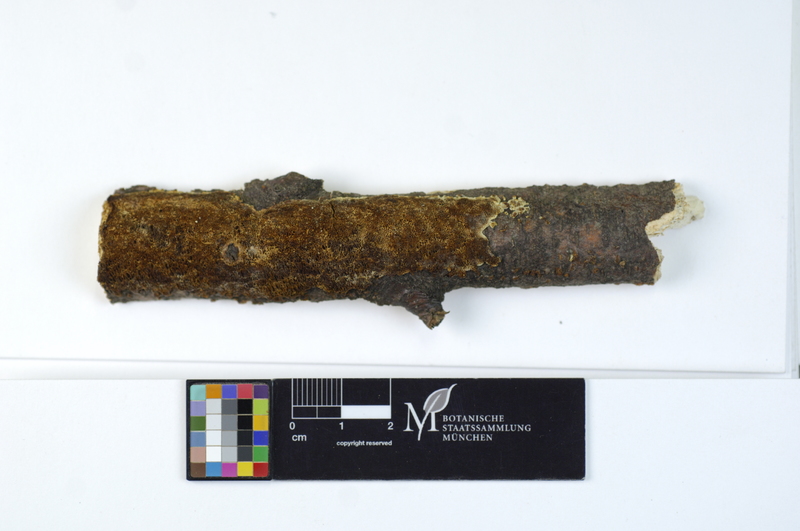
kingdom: Plantae
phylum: Tracheophyta
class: Magnoliopsida
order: Fagales
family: Fagaceae
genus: Fagus
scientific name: Fagus sylvatica
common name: Beech
